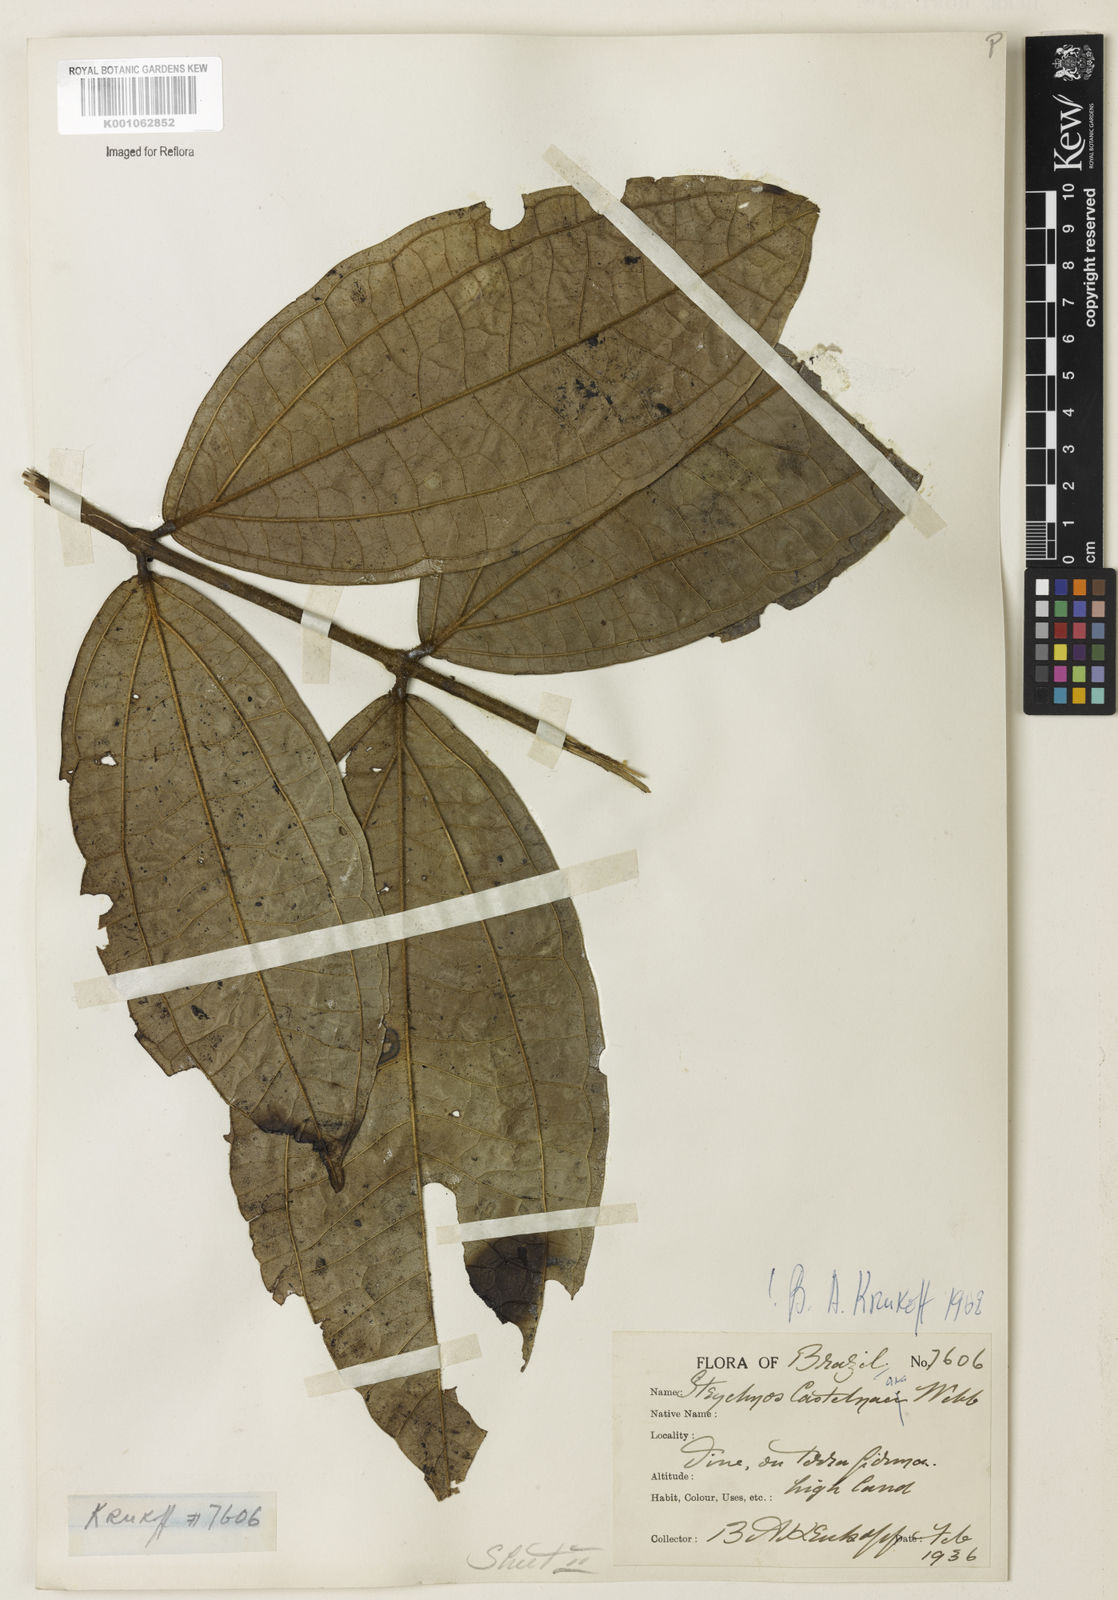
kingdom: Plantae
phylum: Tracheophyta
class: Magnoliopsida
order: Gentianales
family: Loganiaceae
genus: Strychnos
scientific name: Strychnos
